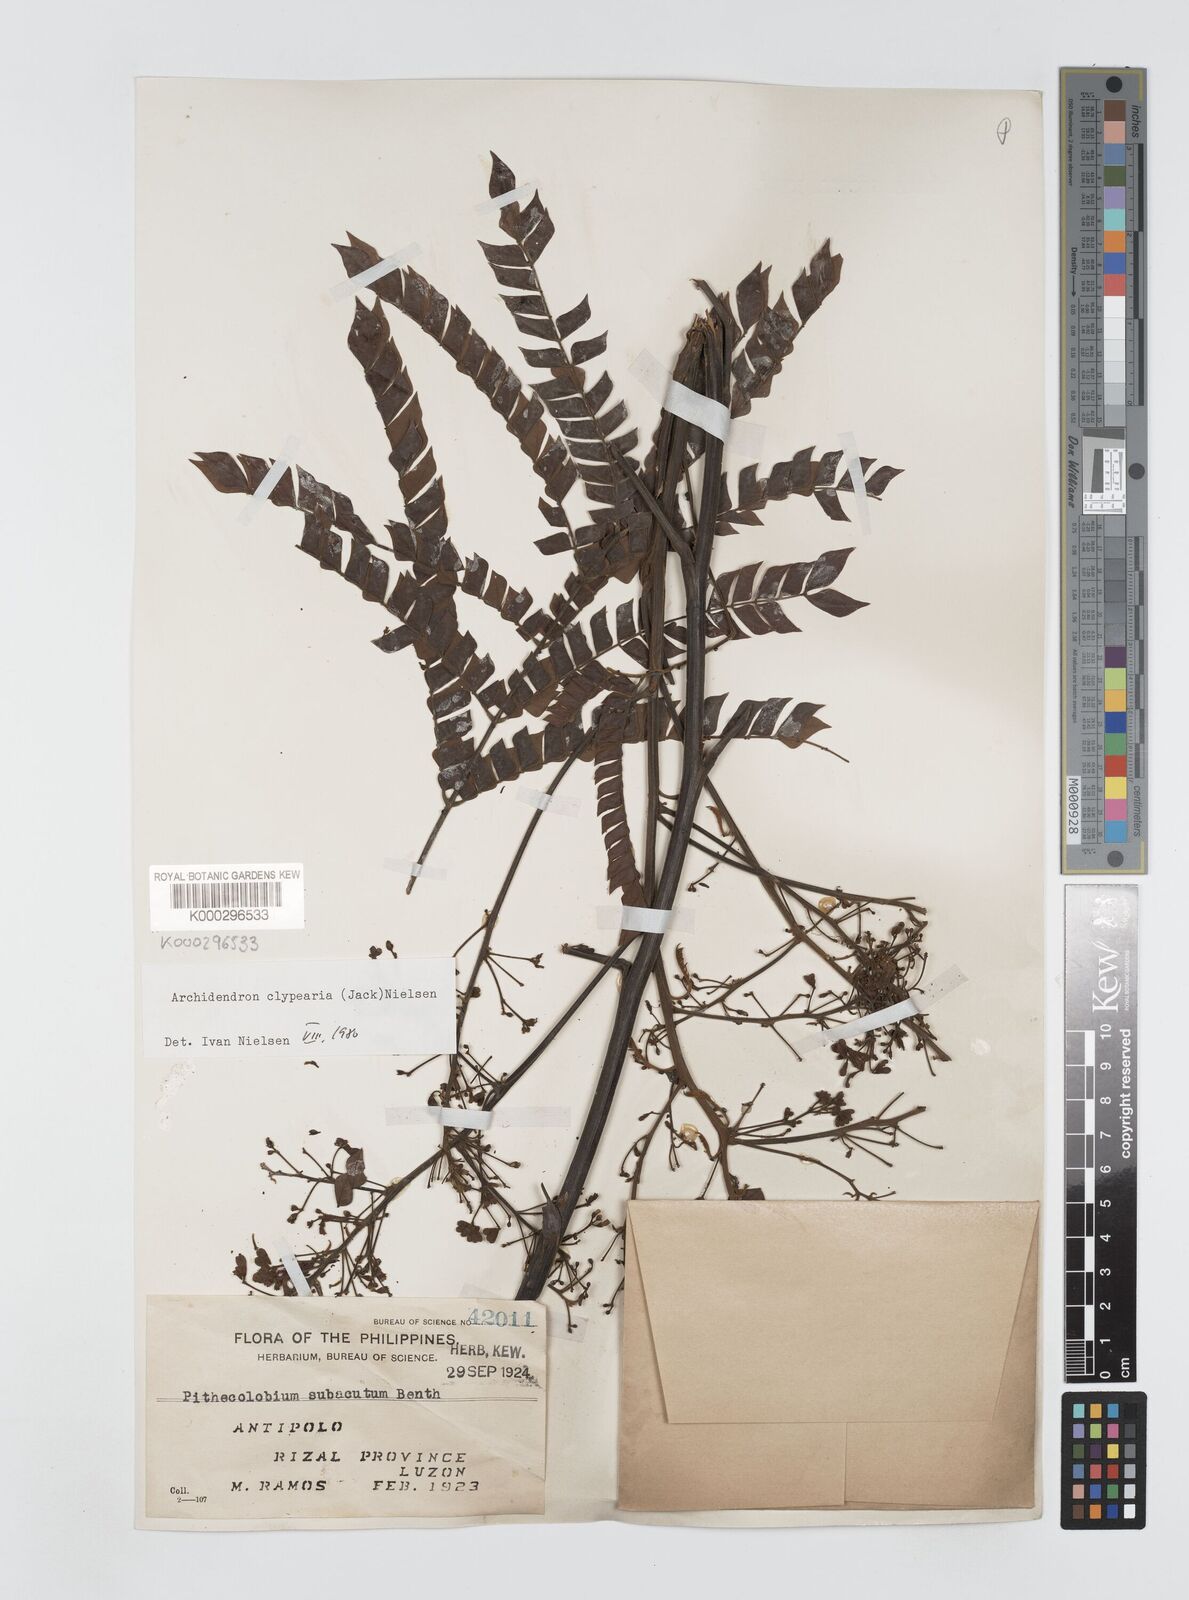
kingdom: Plantae
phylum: Tracheophyta
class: Magnoliopsida
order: Fabales
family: Fabaceae
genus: Archidendron
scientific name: Archidendron clypearia
